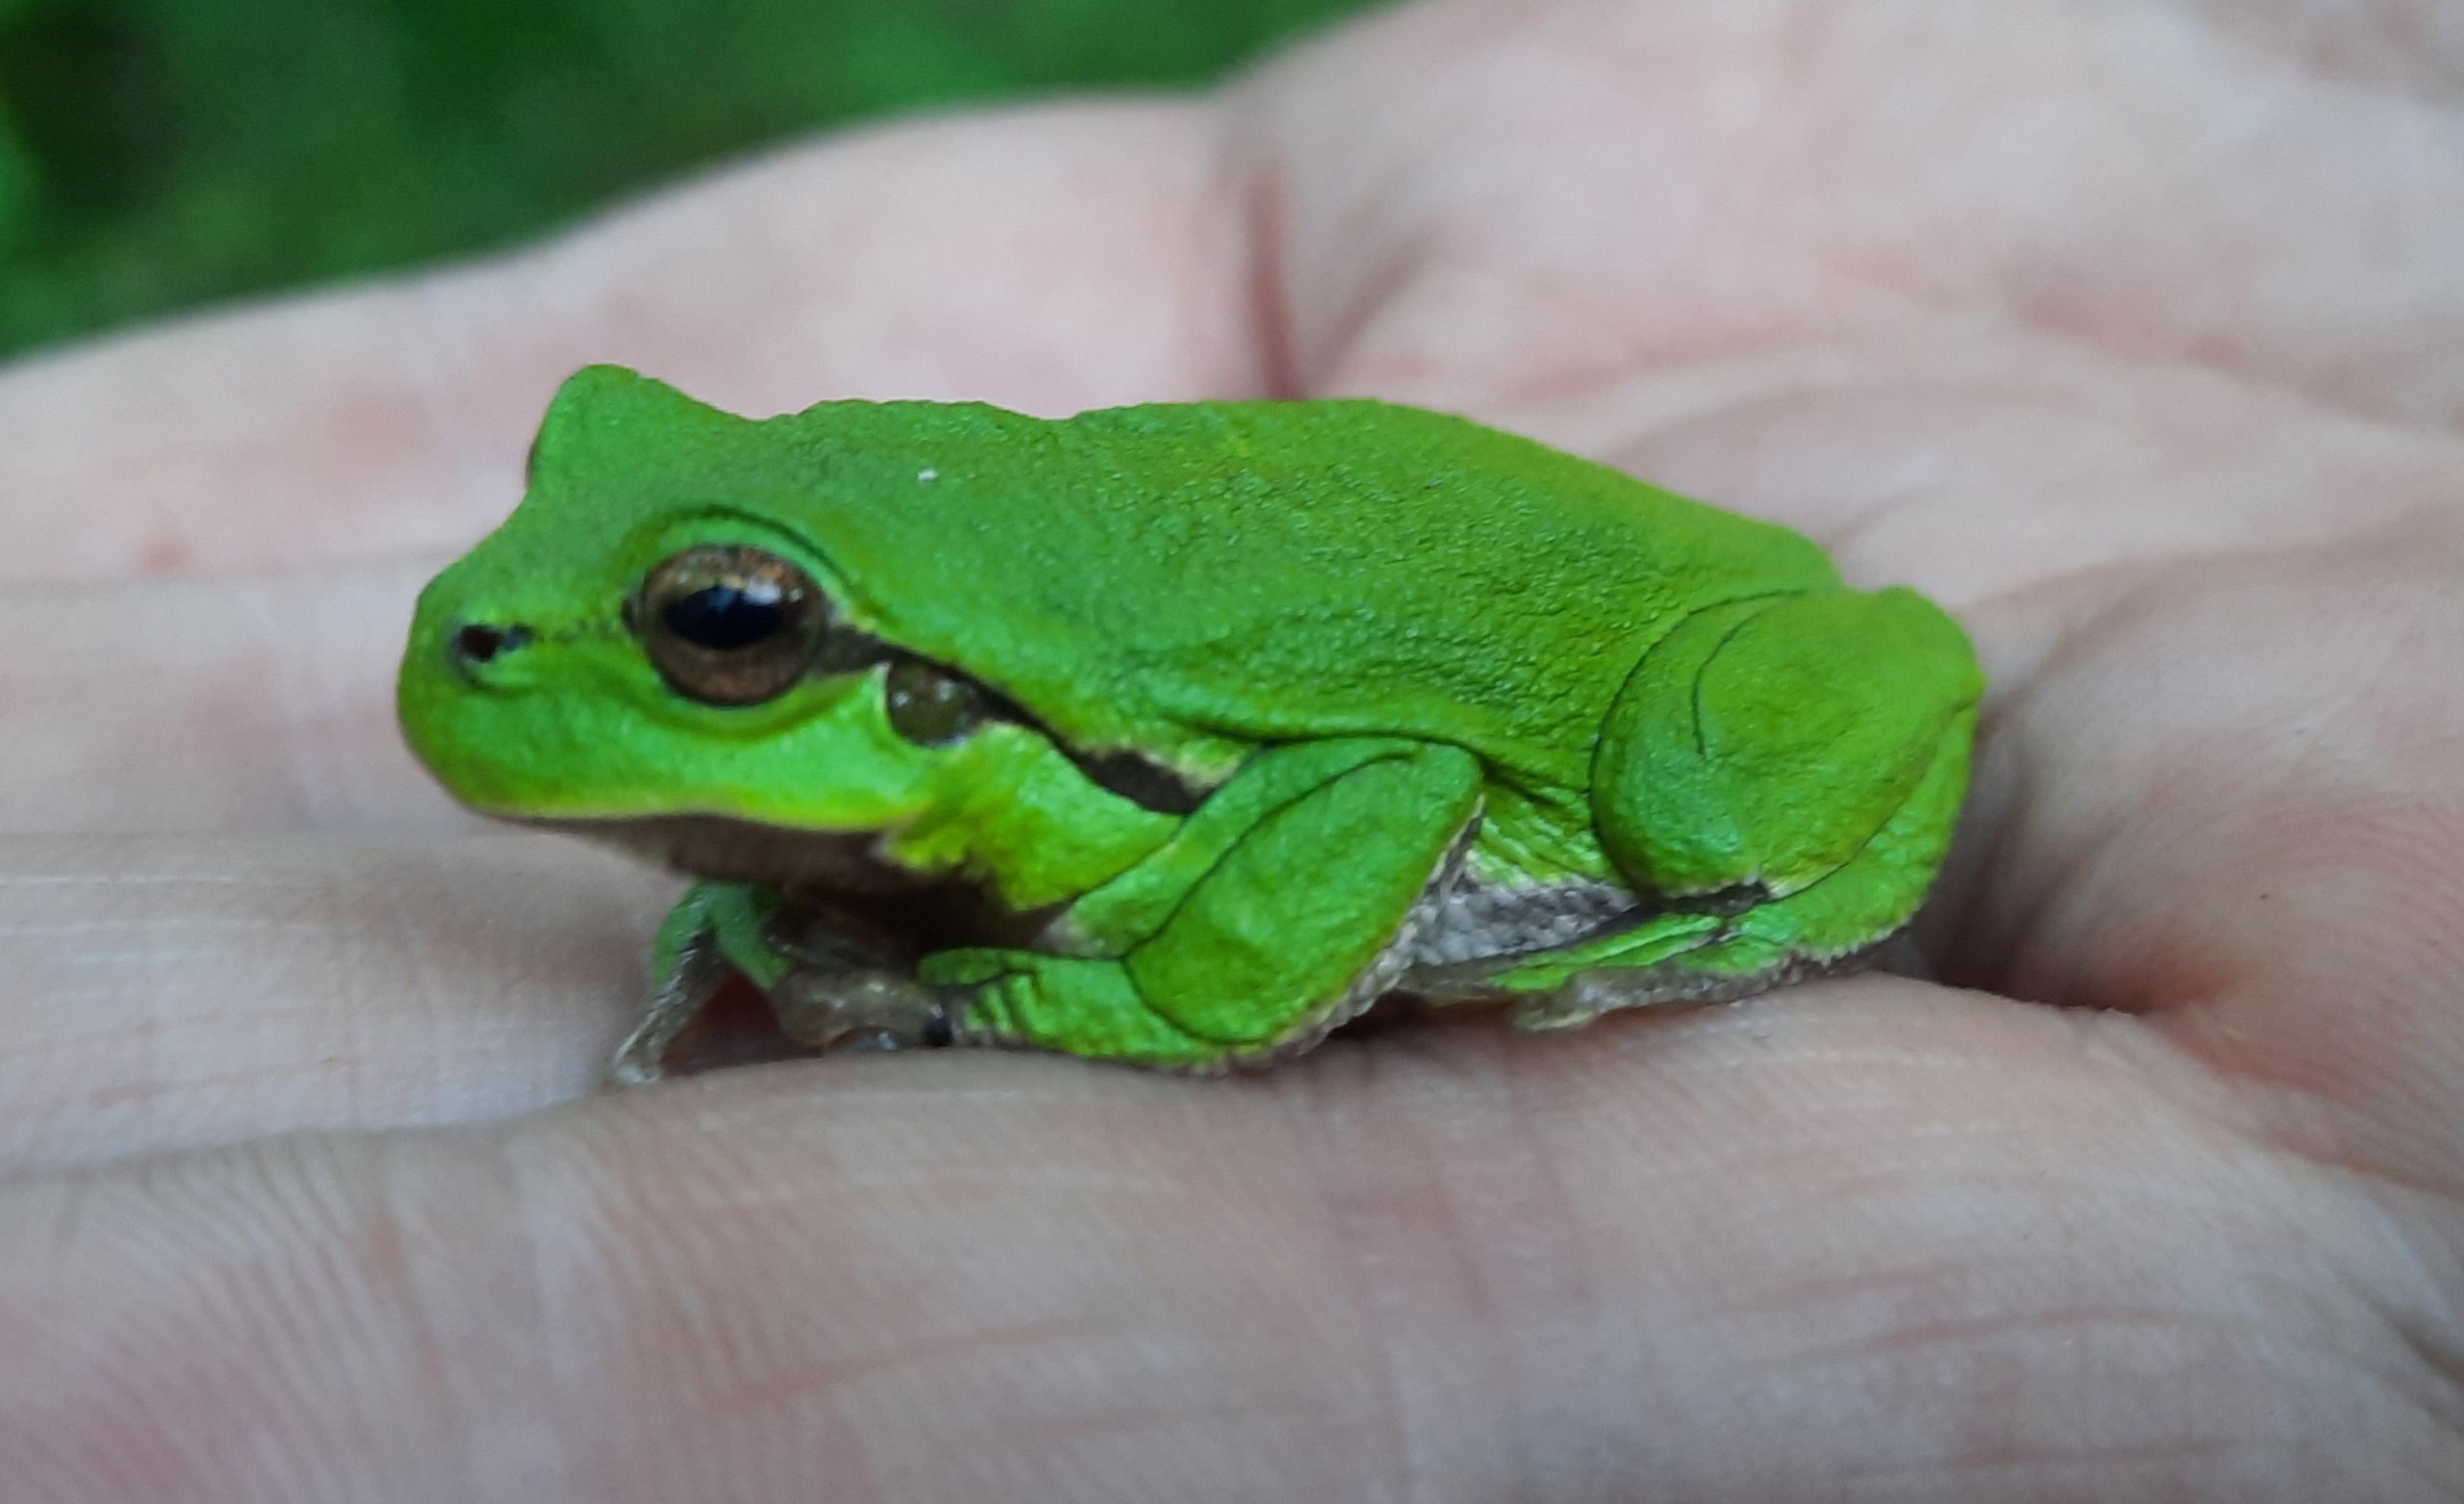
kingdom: Animalia
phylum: Chordata
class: Amphibia
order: Anura
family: Hylidae
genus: Hyla
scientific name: Hyla arborea
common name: Løvfrø
